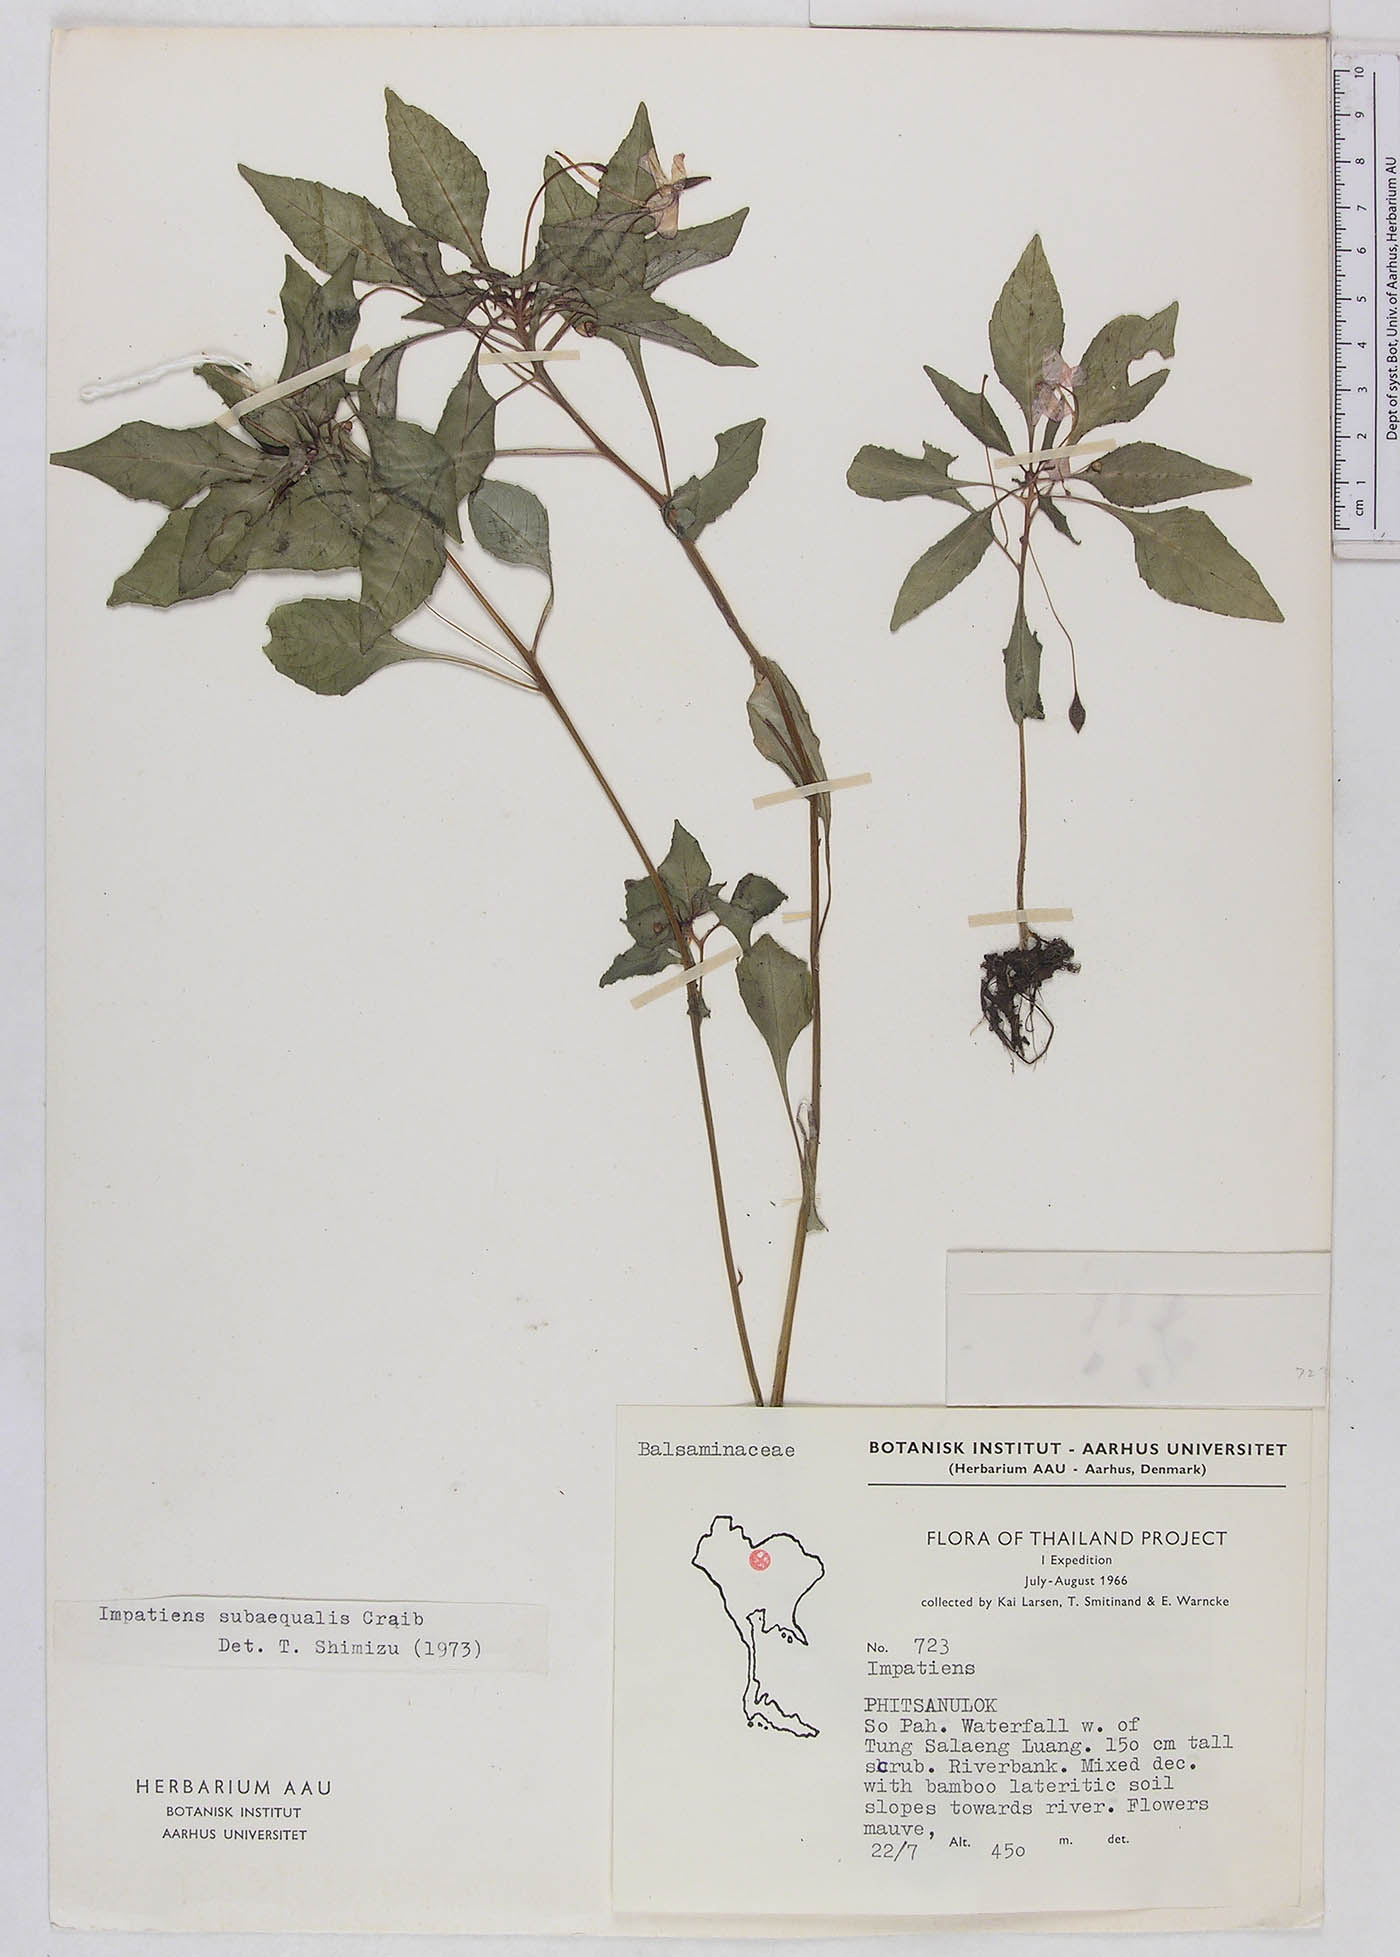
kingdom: Plantae
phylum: Tracheophyta
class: Magnoliopsida
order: Ericales
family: Balsaminaceae
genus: Impatiens
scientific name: Impatiens violiflora
